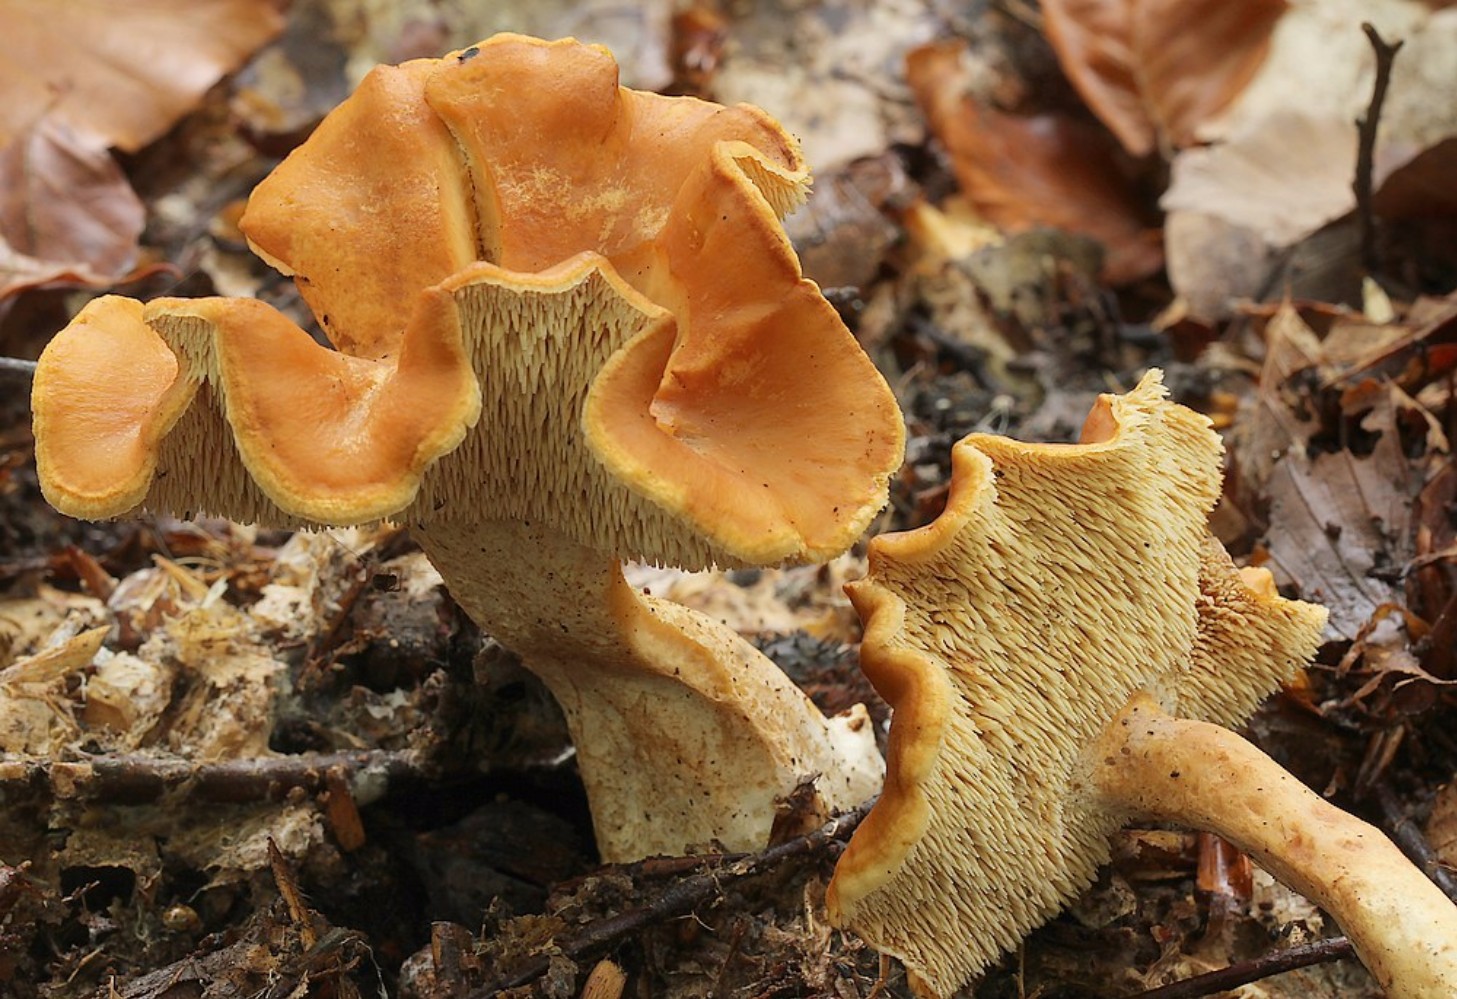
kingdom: Fungi
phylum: Basidiomycota
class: Agaricomycetes
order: Cantharellales
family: Hydnaceae
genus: Hydnum
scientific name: Hydnum
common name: pigsvamp
